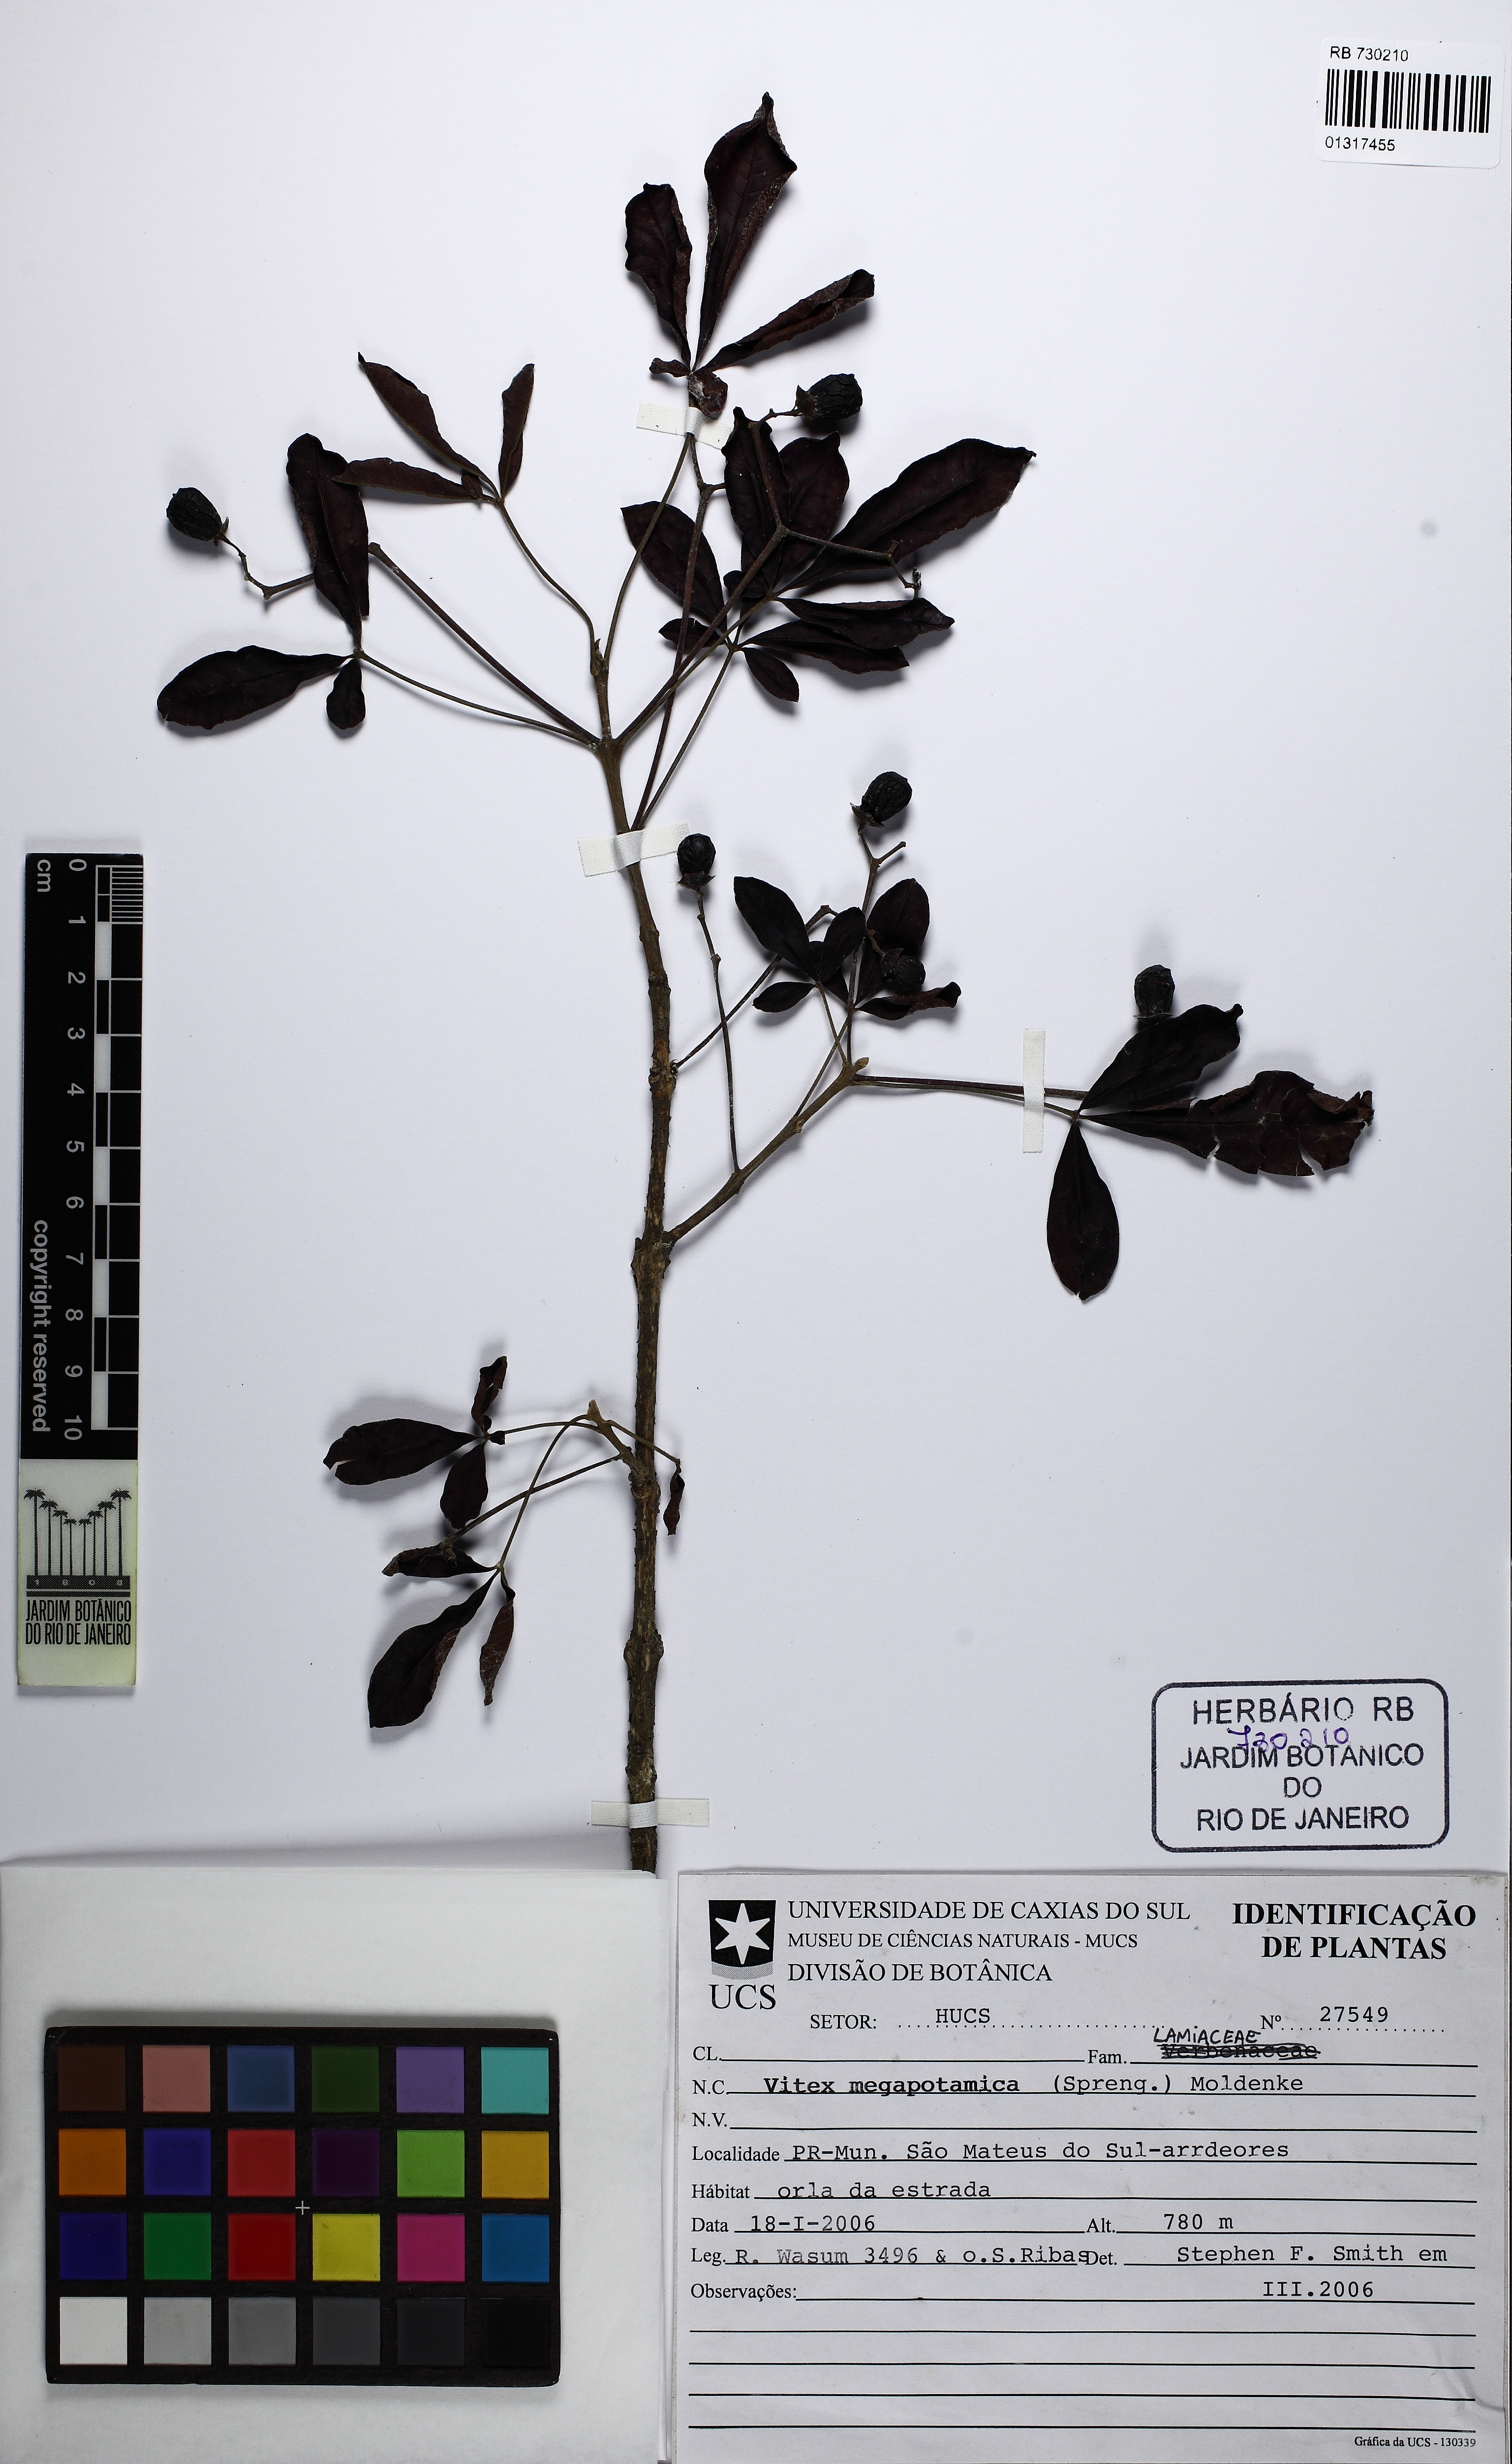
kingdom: Plantae
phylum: Tracheophyta
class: Magnoliopsida
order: Lamiales
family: Lamiaceae
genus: Vitex
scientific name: Vitex megapotamica
